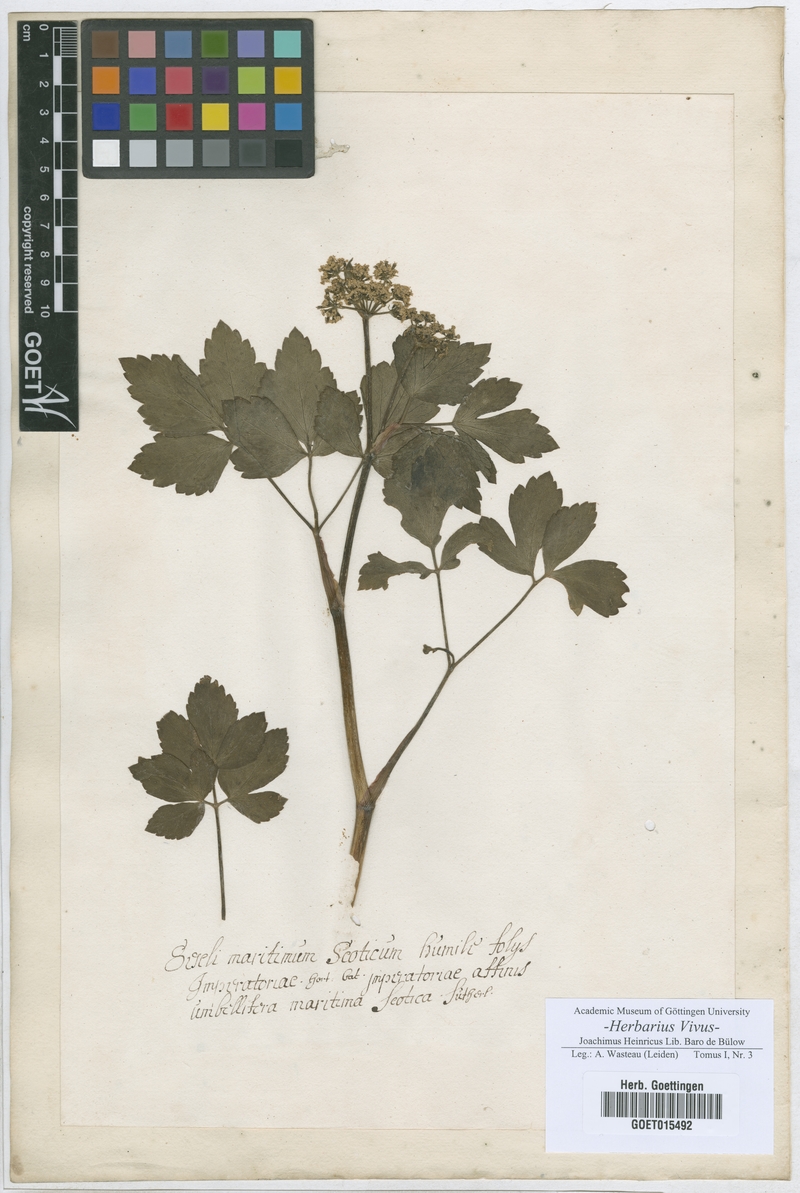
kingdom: Plantae
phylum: Tracheophyta
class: Magnoliopsida
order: Apiales
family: Apiaceae
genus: Seseli
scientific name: Seseli
